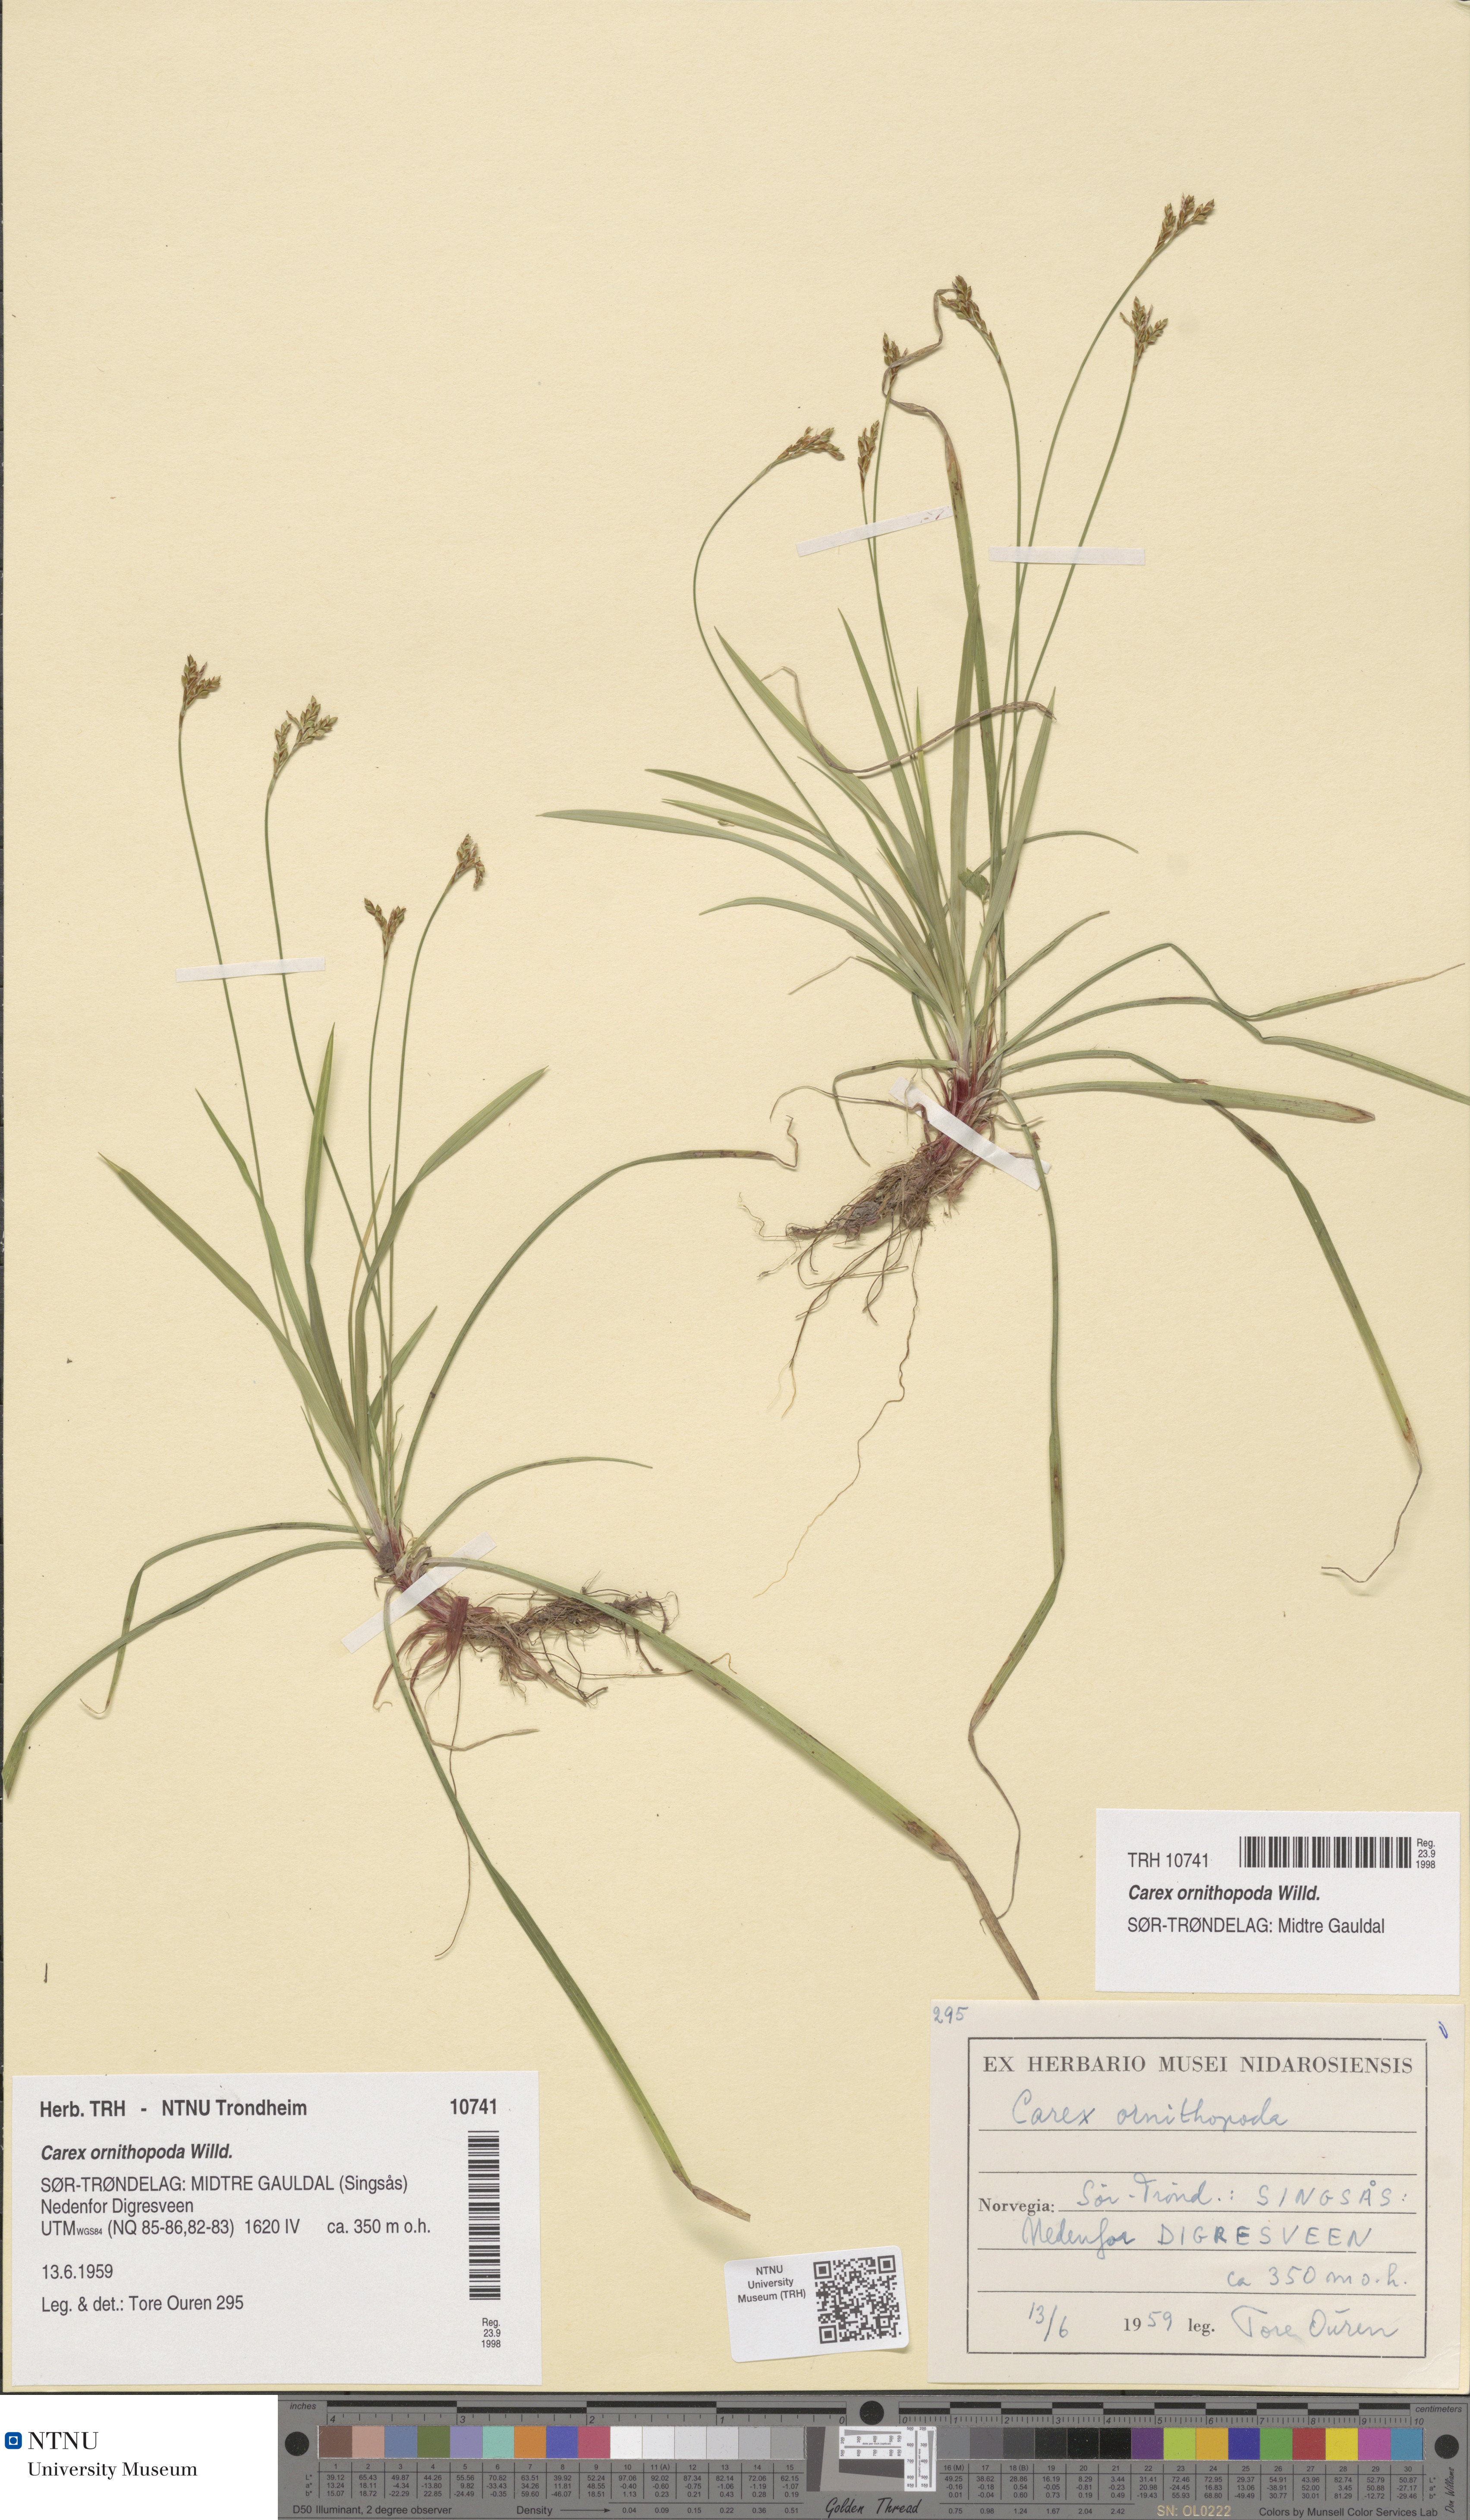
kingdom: Plantae
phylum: Tracheophyta
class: Liliopsida
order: Poales
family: Cyperaceae
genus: Carex
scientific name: Carex ornithopoda
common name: Bird's-foot sedge
